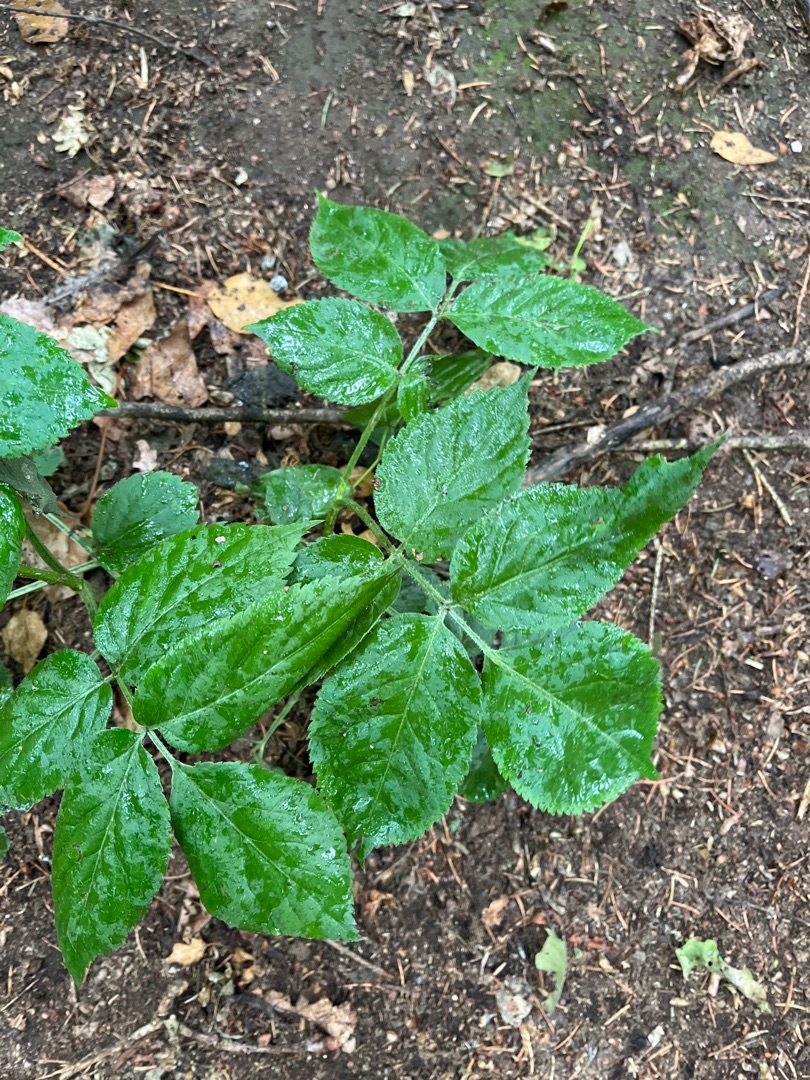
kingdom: Plantae
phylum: Tracheophyta
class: Magnoliopsida
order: Dipsacales
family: Viburnaceae
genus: Sambucus
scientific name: Sambucus nigra
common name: Almindelig hyld
